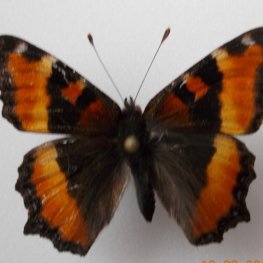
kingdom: Animalia
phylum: Arthropoda
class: Insecta
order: Lepidoptera
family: Nymphalidae
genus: Aglais
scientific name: Aglais milberti
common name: Milbert's Tortoiseshell
